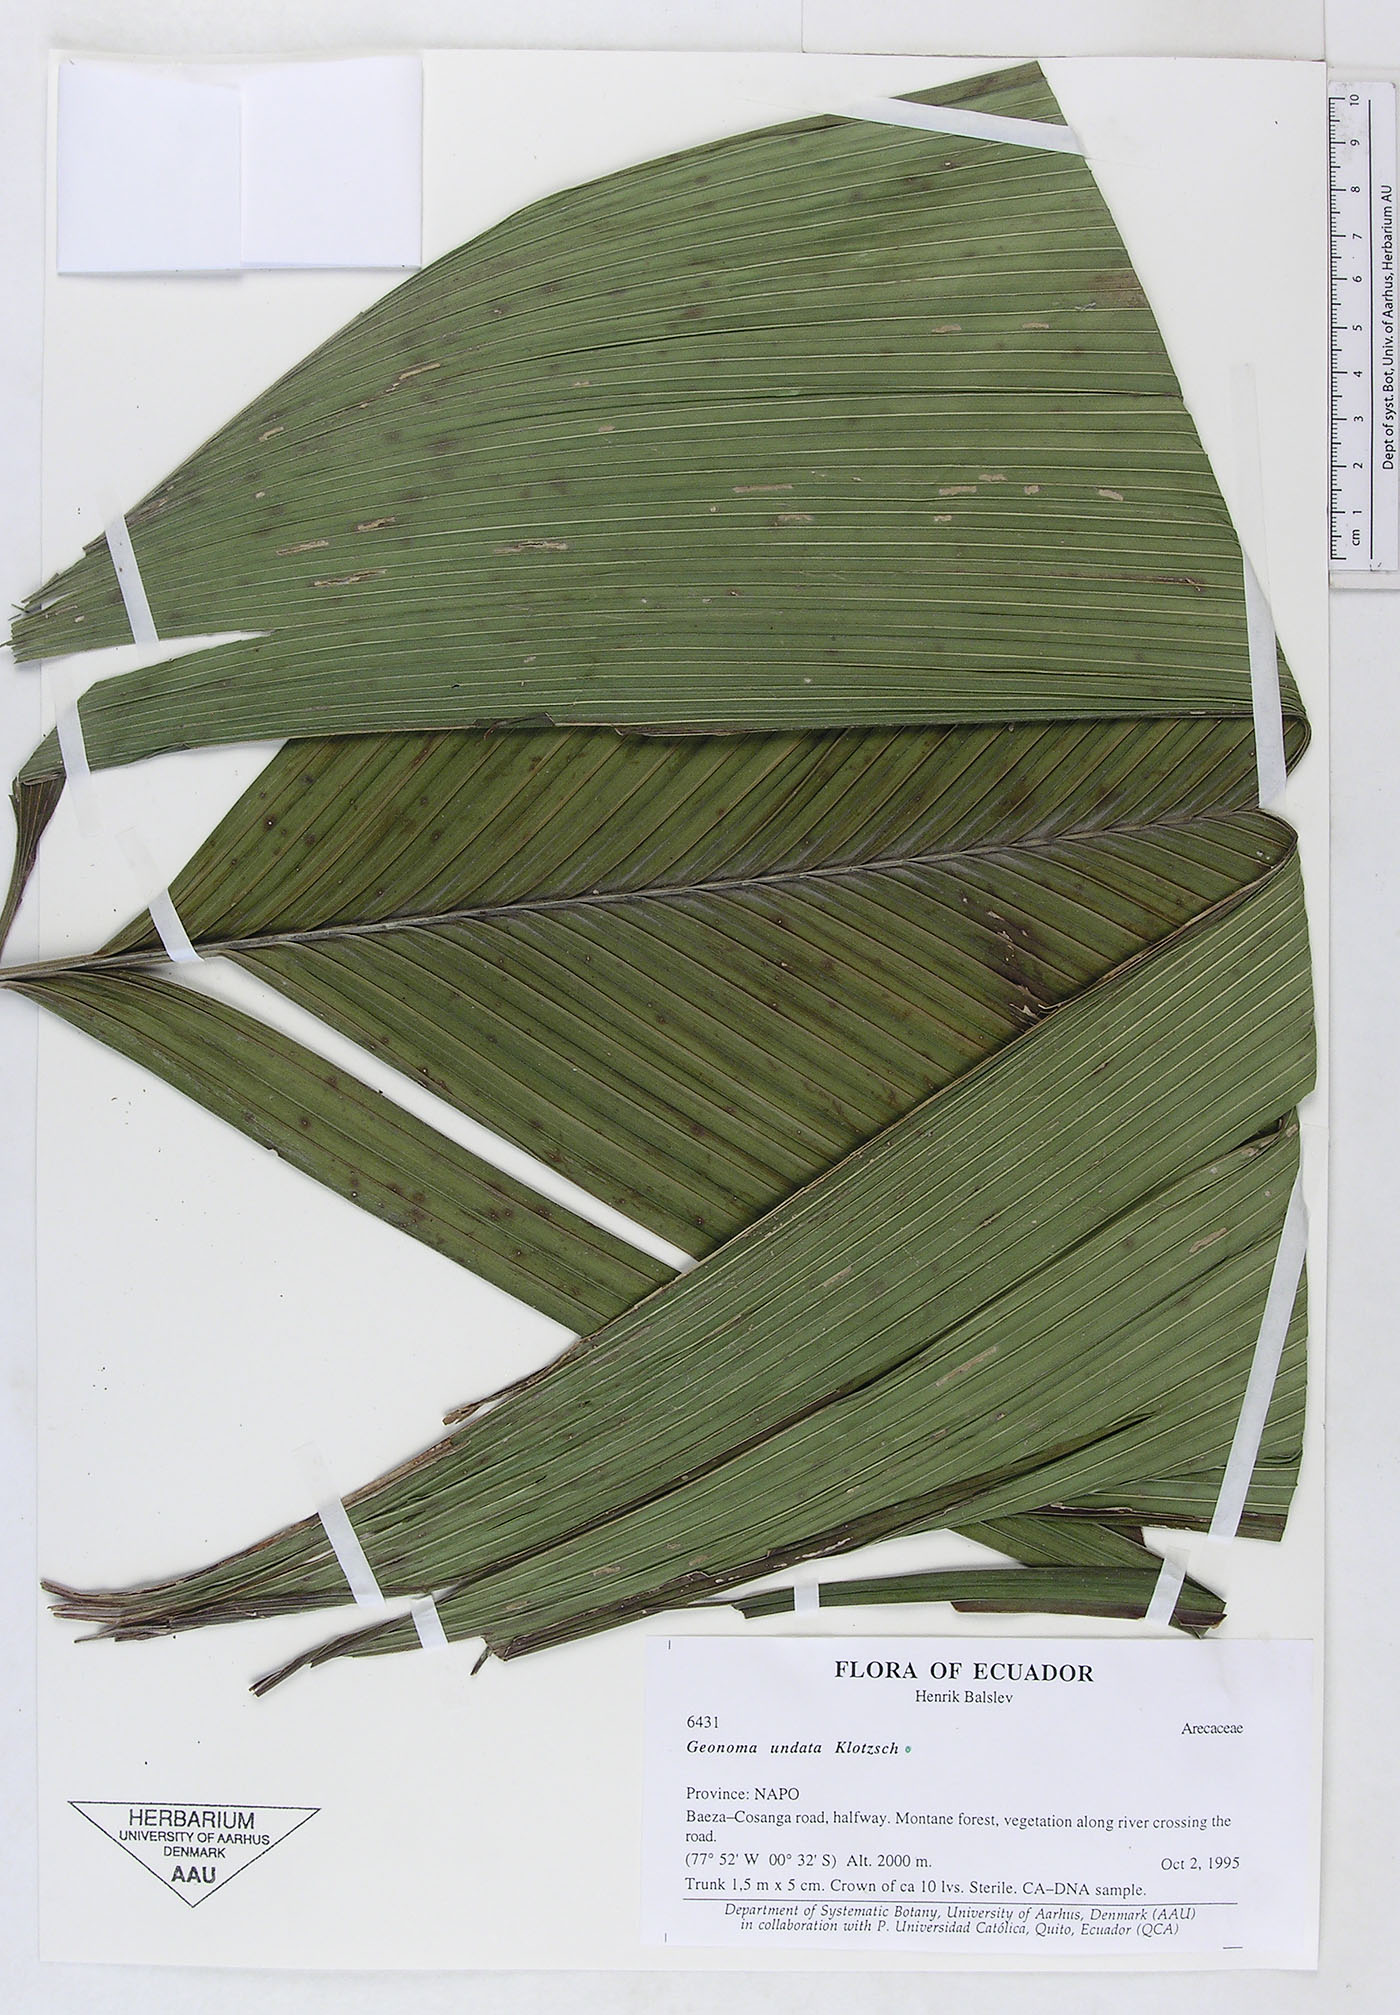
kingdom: Plantae
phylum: Tracheophyta
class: Liliopsida
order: Arecales
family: Arecaceae
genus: Geonoma
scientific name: Geonoma undata
